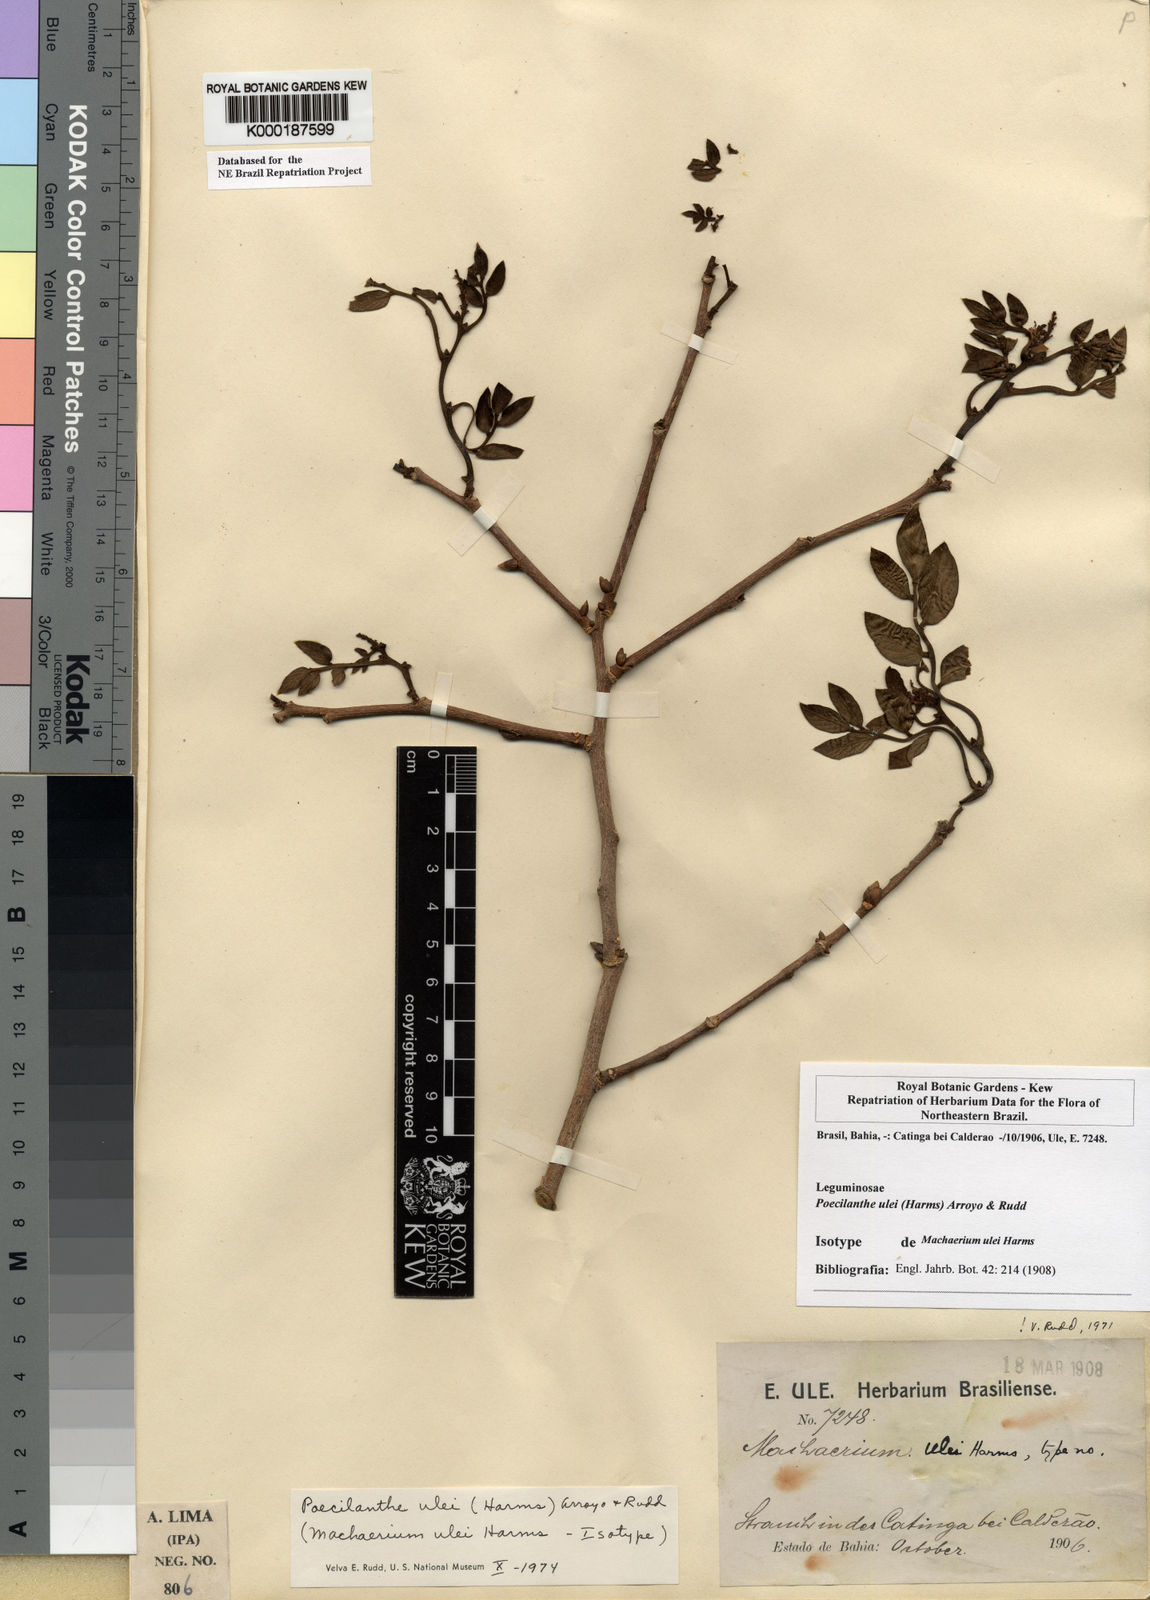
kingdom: Plantae
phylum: Tracheophyta
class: Magnoliopsida
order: Fabales
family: Fabaceae
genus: Poecilanthe
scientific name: Poecilanthe ulei
